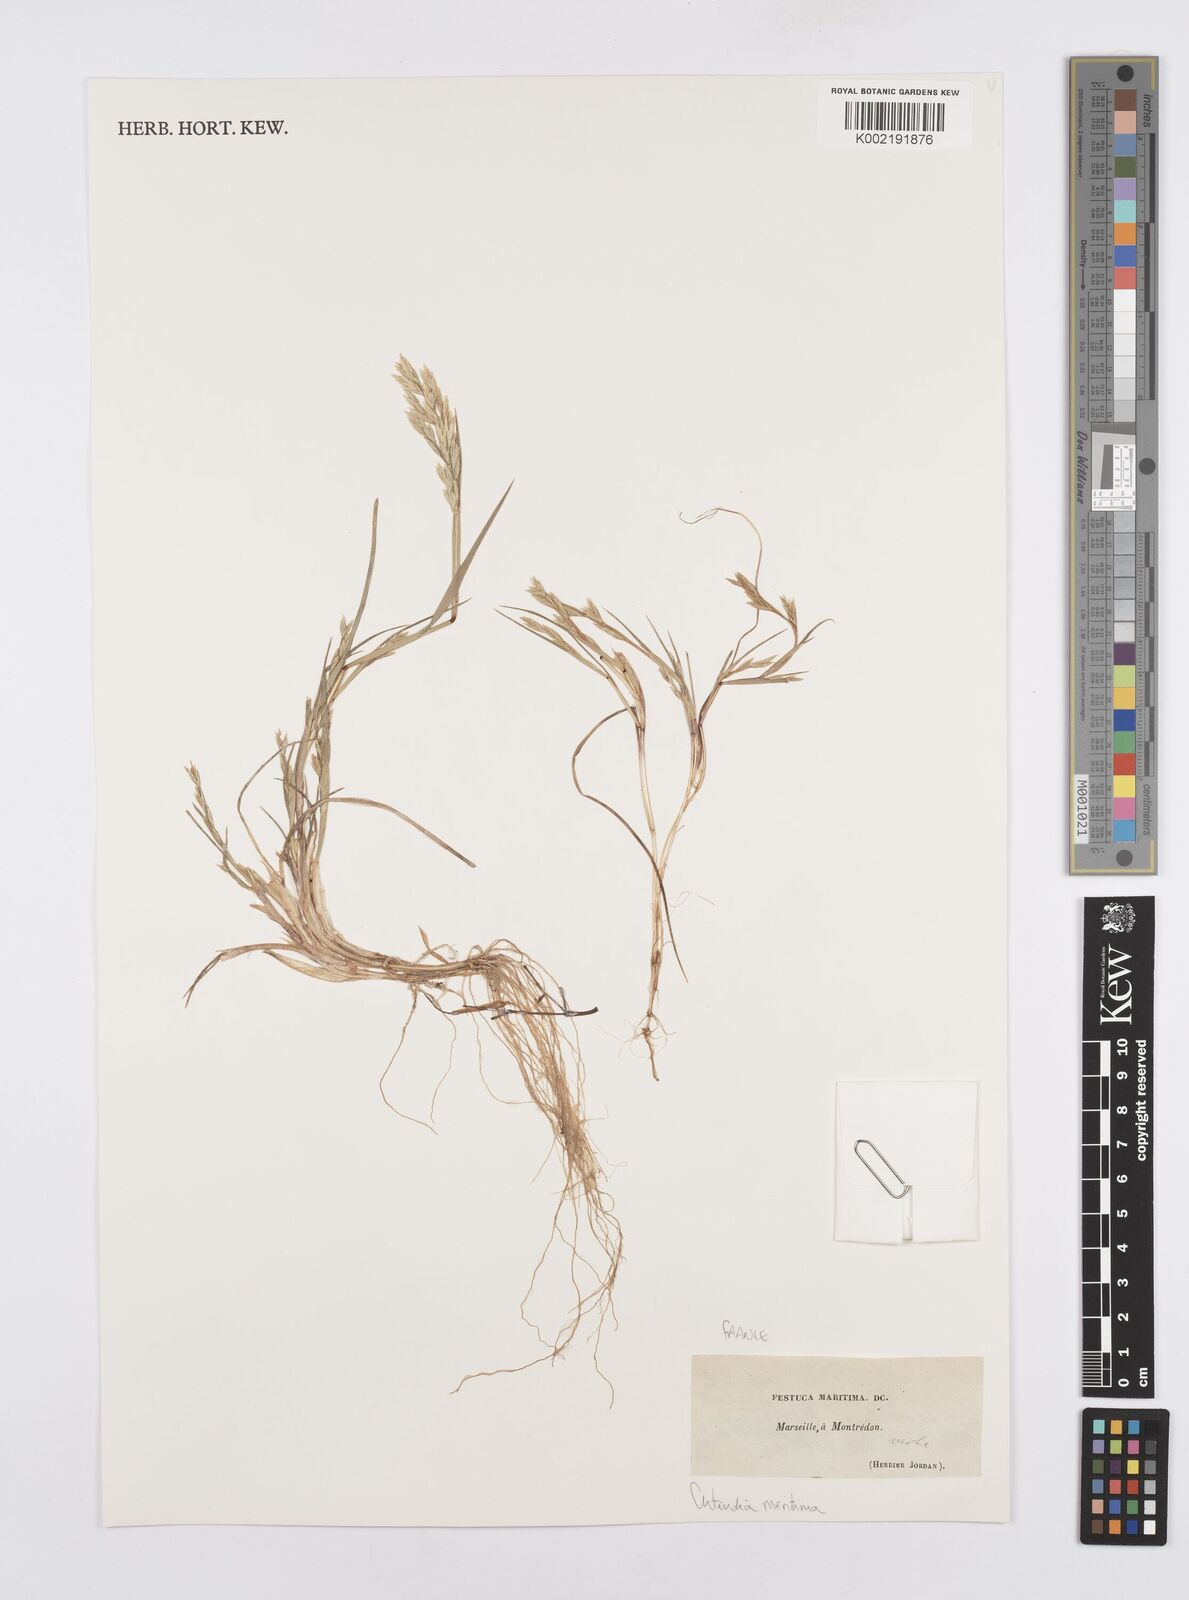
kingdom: Plantae
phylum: Tracheophyta
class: Liliopsida
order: Poales
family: Poaceae
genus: Cutandia
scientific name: Cutandia maritima
